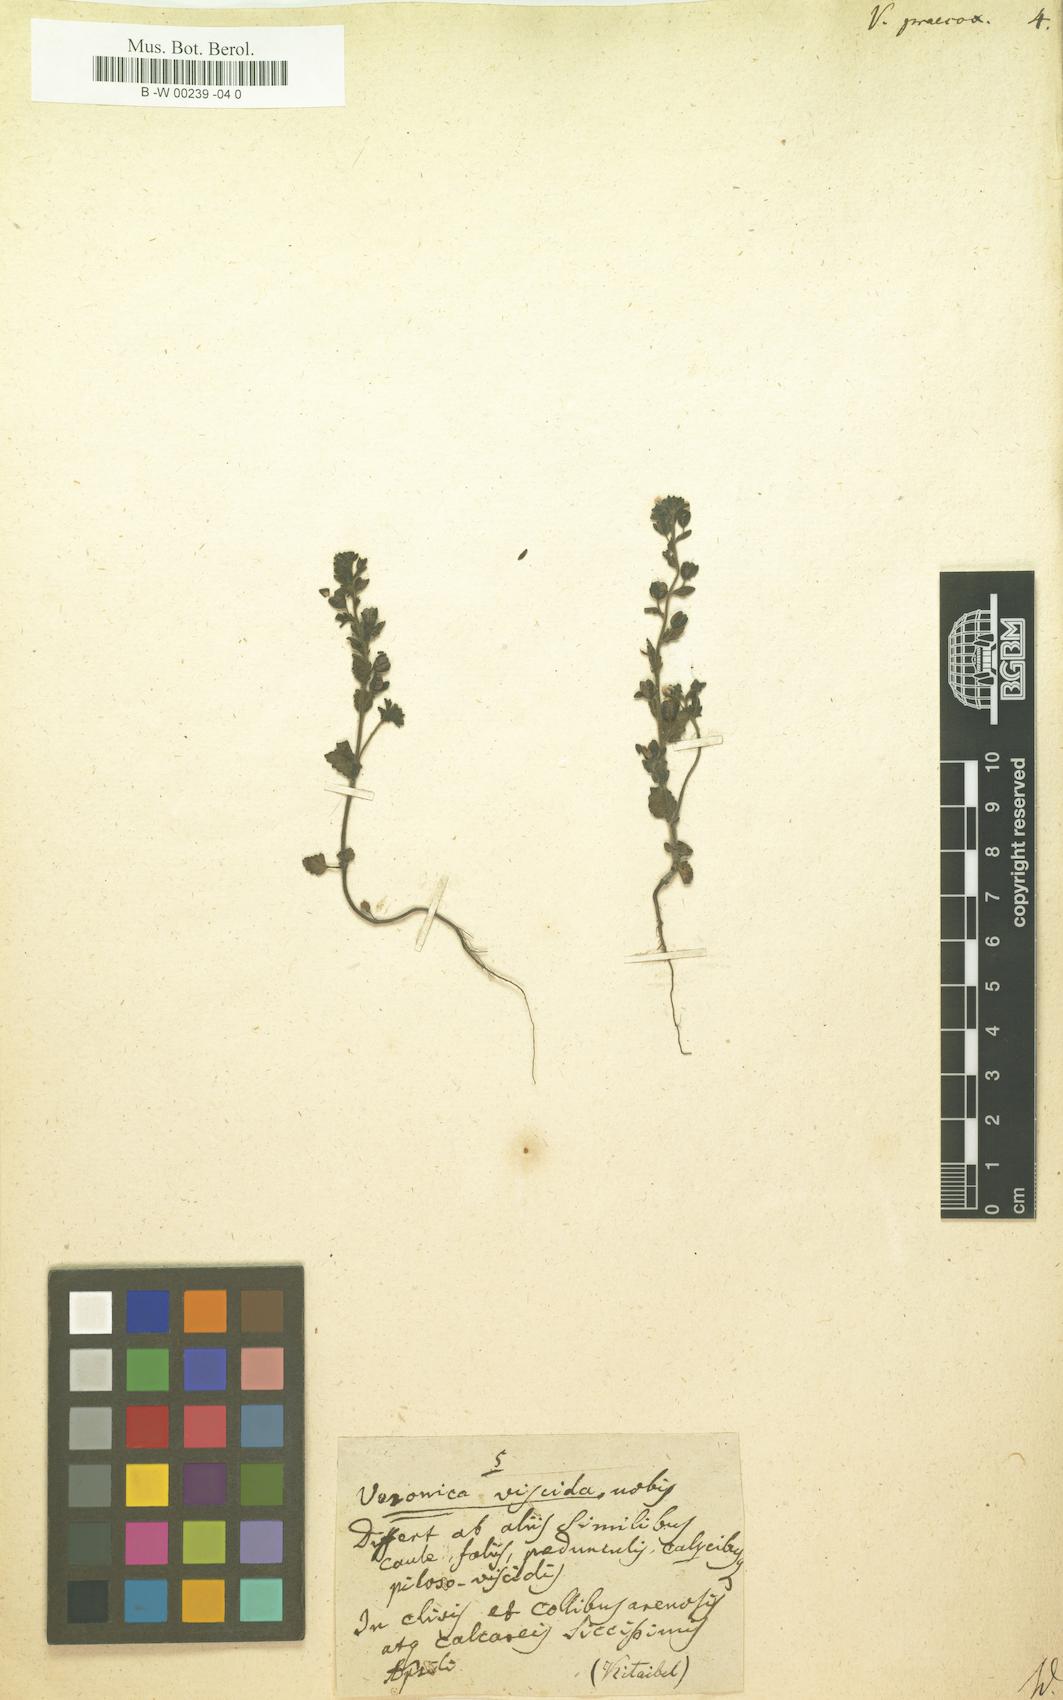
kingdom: Plantae
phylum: Tracheophyta
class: Magnoliopsida
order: Lamiales
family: Plantaginaceae
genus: Veronica
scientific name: Veronica praecox
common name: Breckland speedwell
